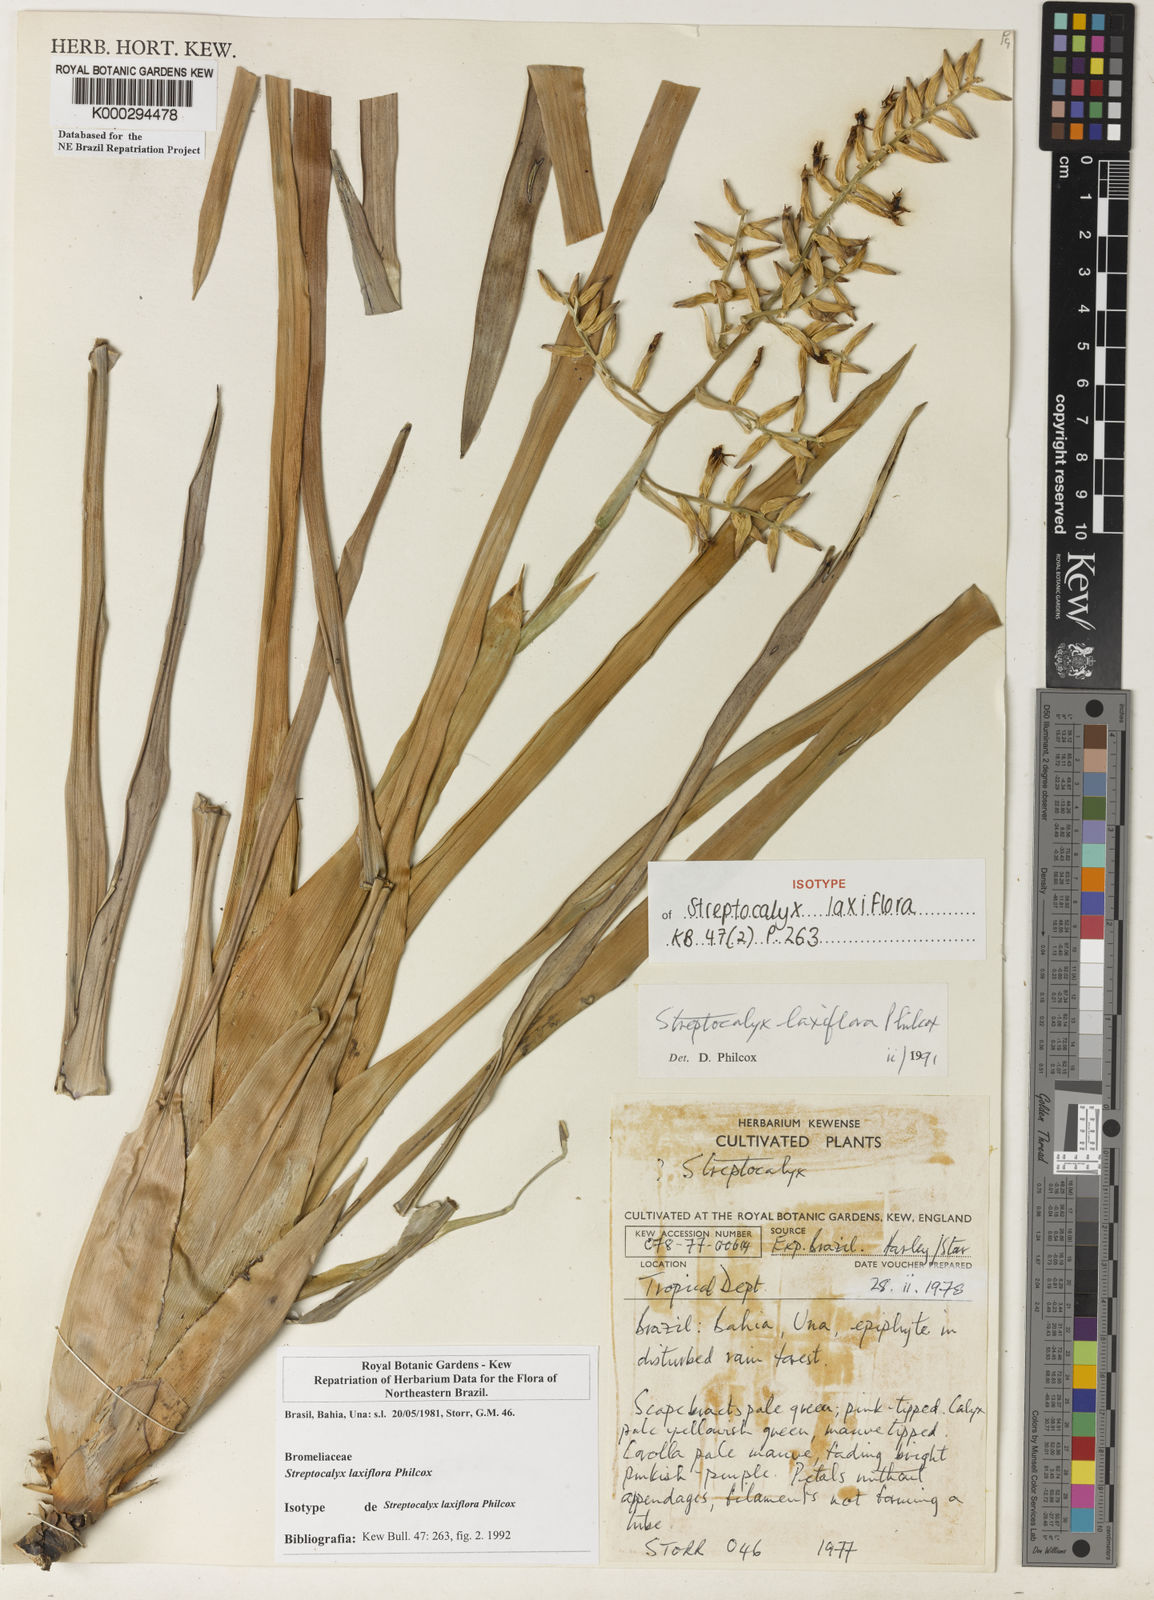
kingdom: Plantae
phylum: Tracheophyta
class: Liliopsida
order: Poales
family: Bromeliaceae
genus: Wittmackia
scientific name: Wittmackia brasiliensis
